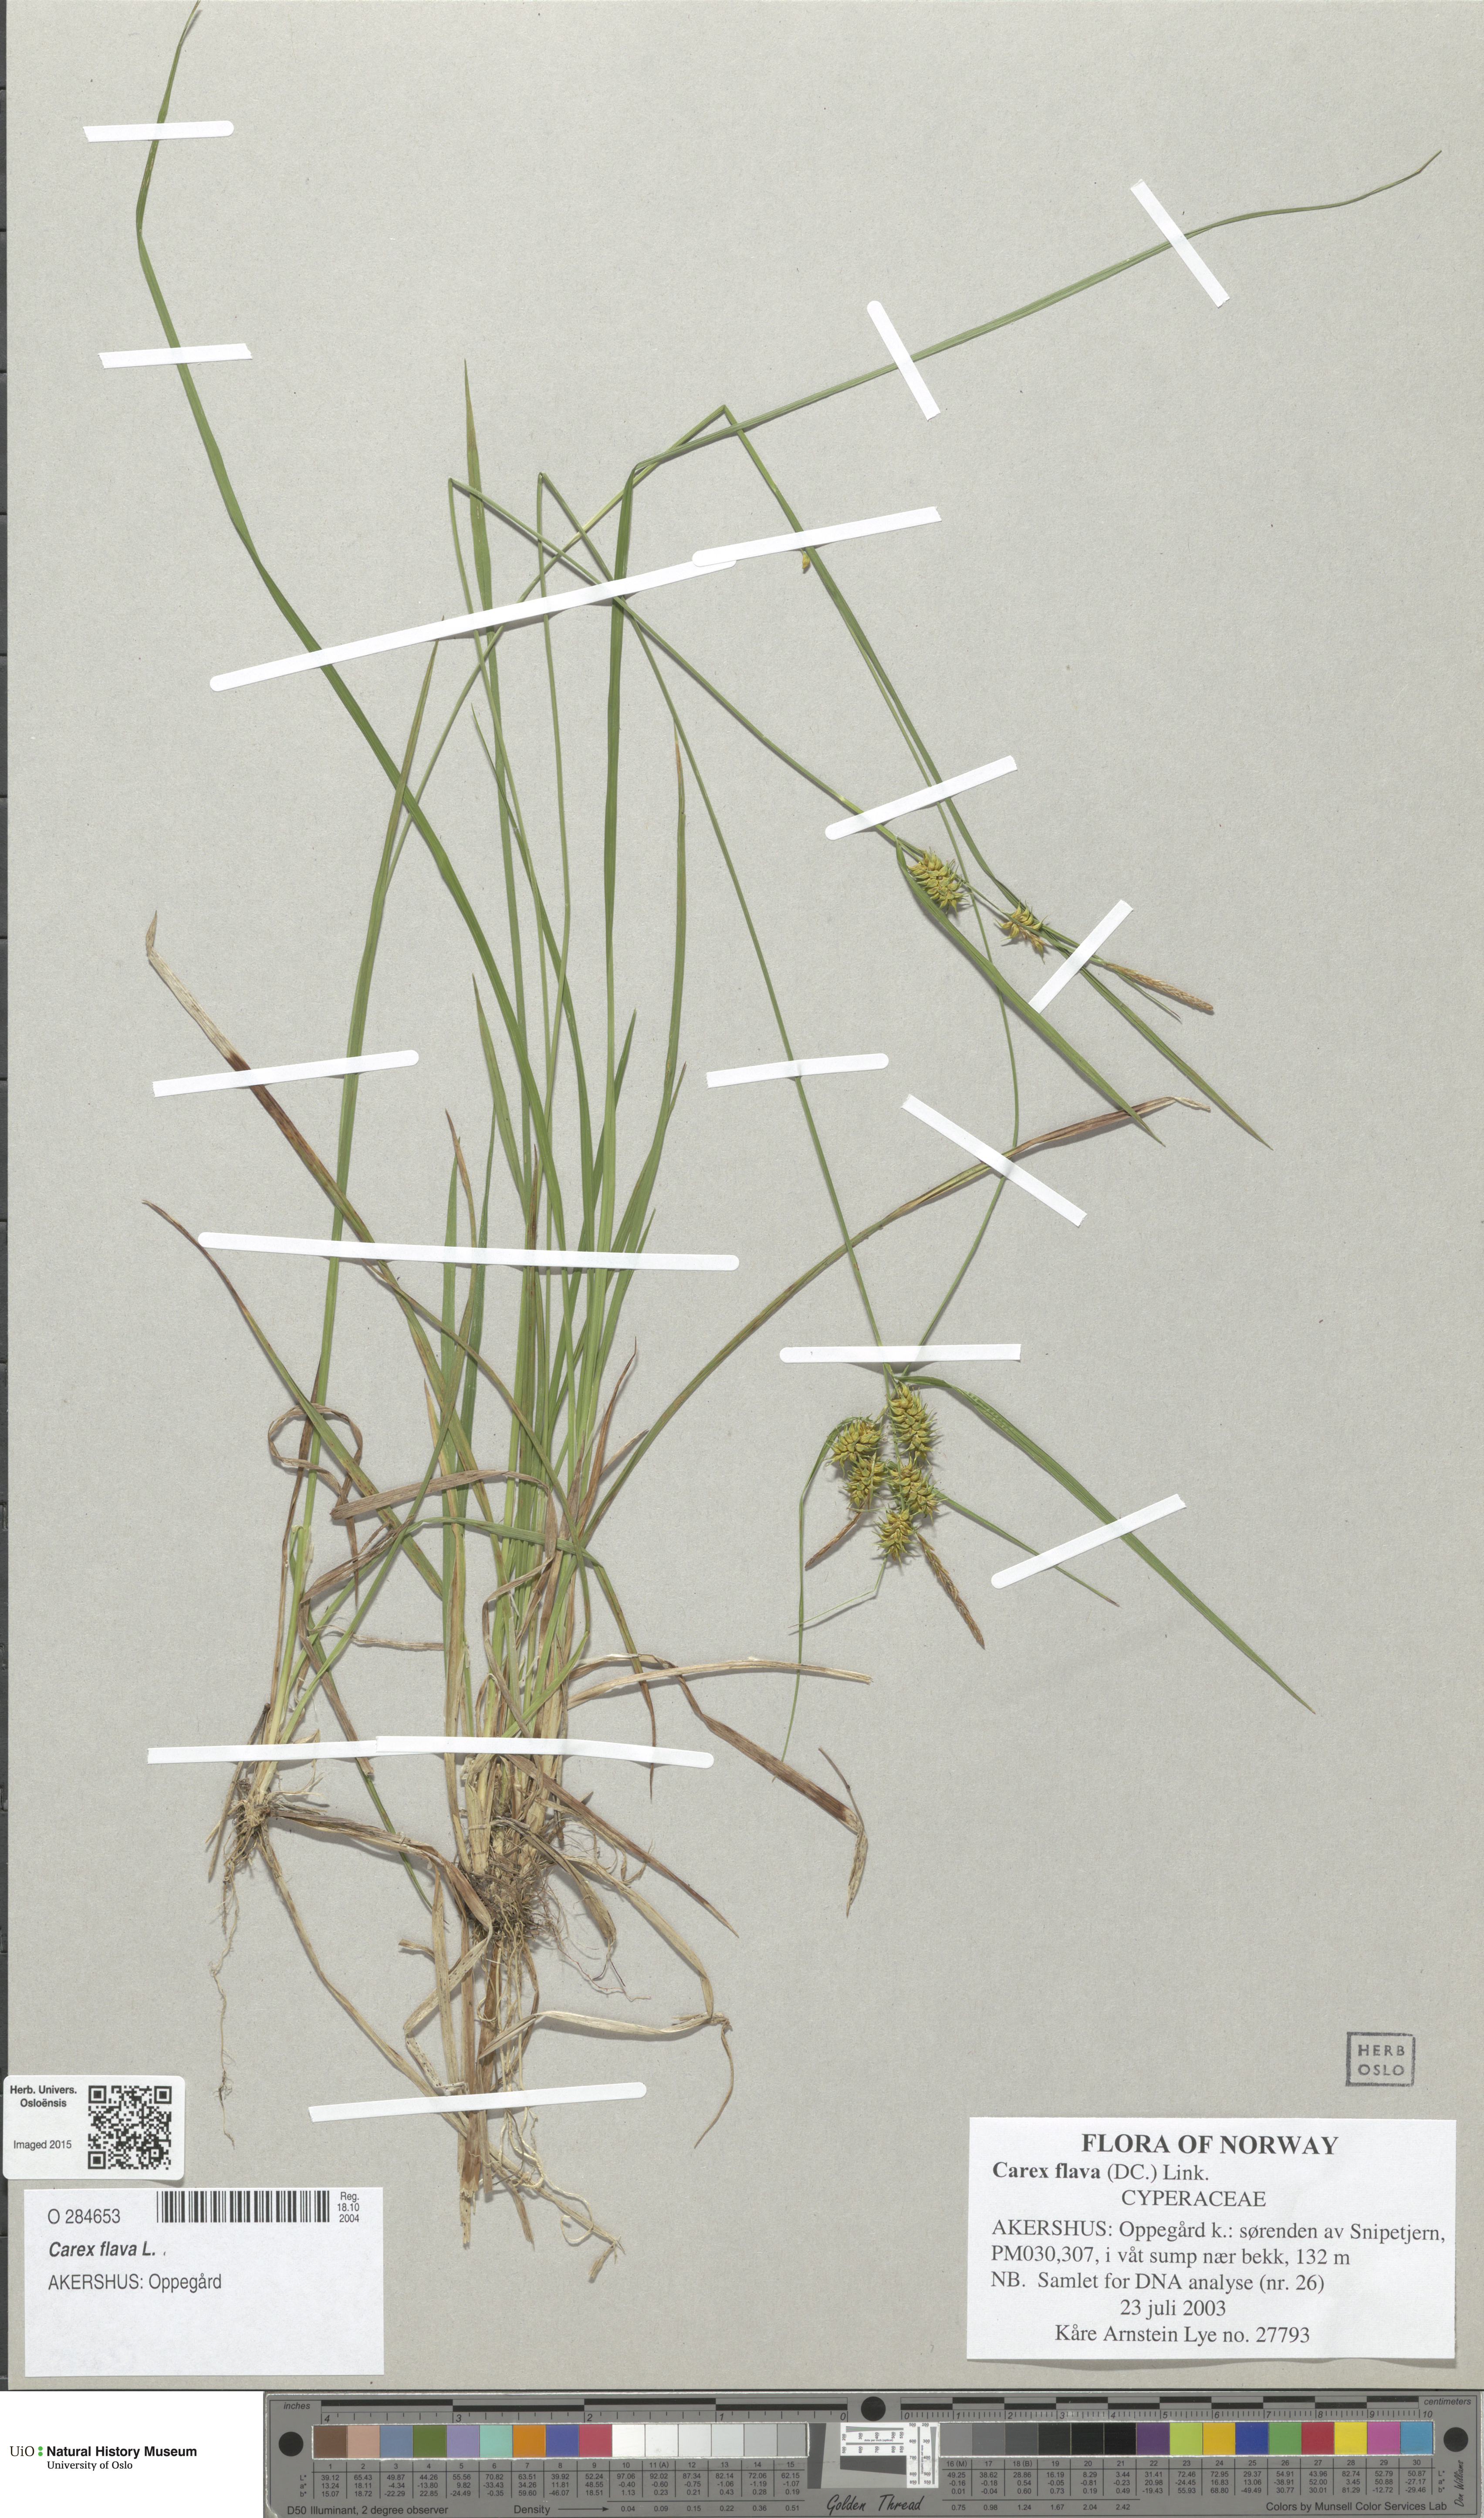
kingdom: Plantae
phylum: Tracheophyta
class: Liliopsida
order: Poales
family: Cyperaceae
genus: Carex
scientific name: Carex flava
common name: Large yellow-sedge
